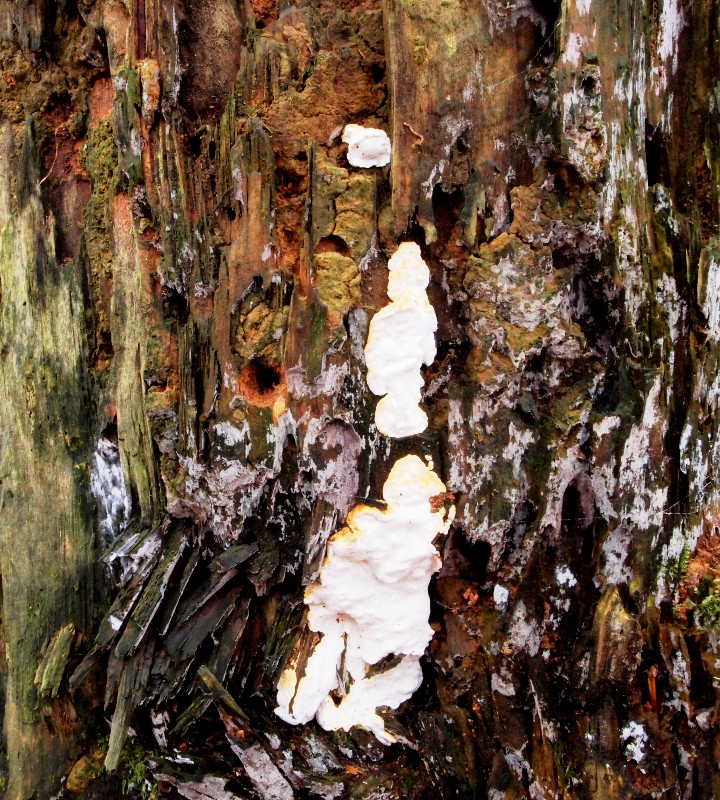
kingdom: Fungi
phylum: Basidiomycota
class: Agaricomycetes
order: Polyporales
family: Fomitopsidaceae
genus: Neoantrodia
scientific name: Neoantrodia serialis
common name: række-sejporesvamp
